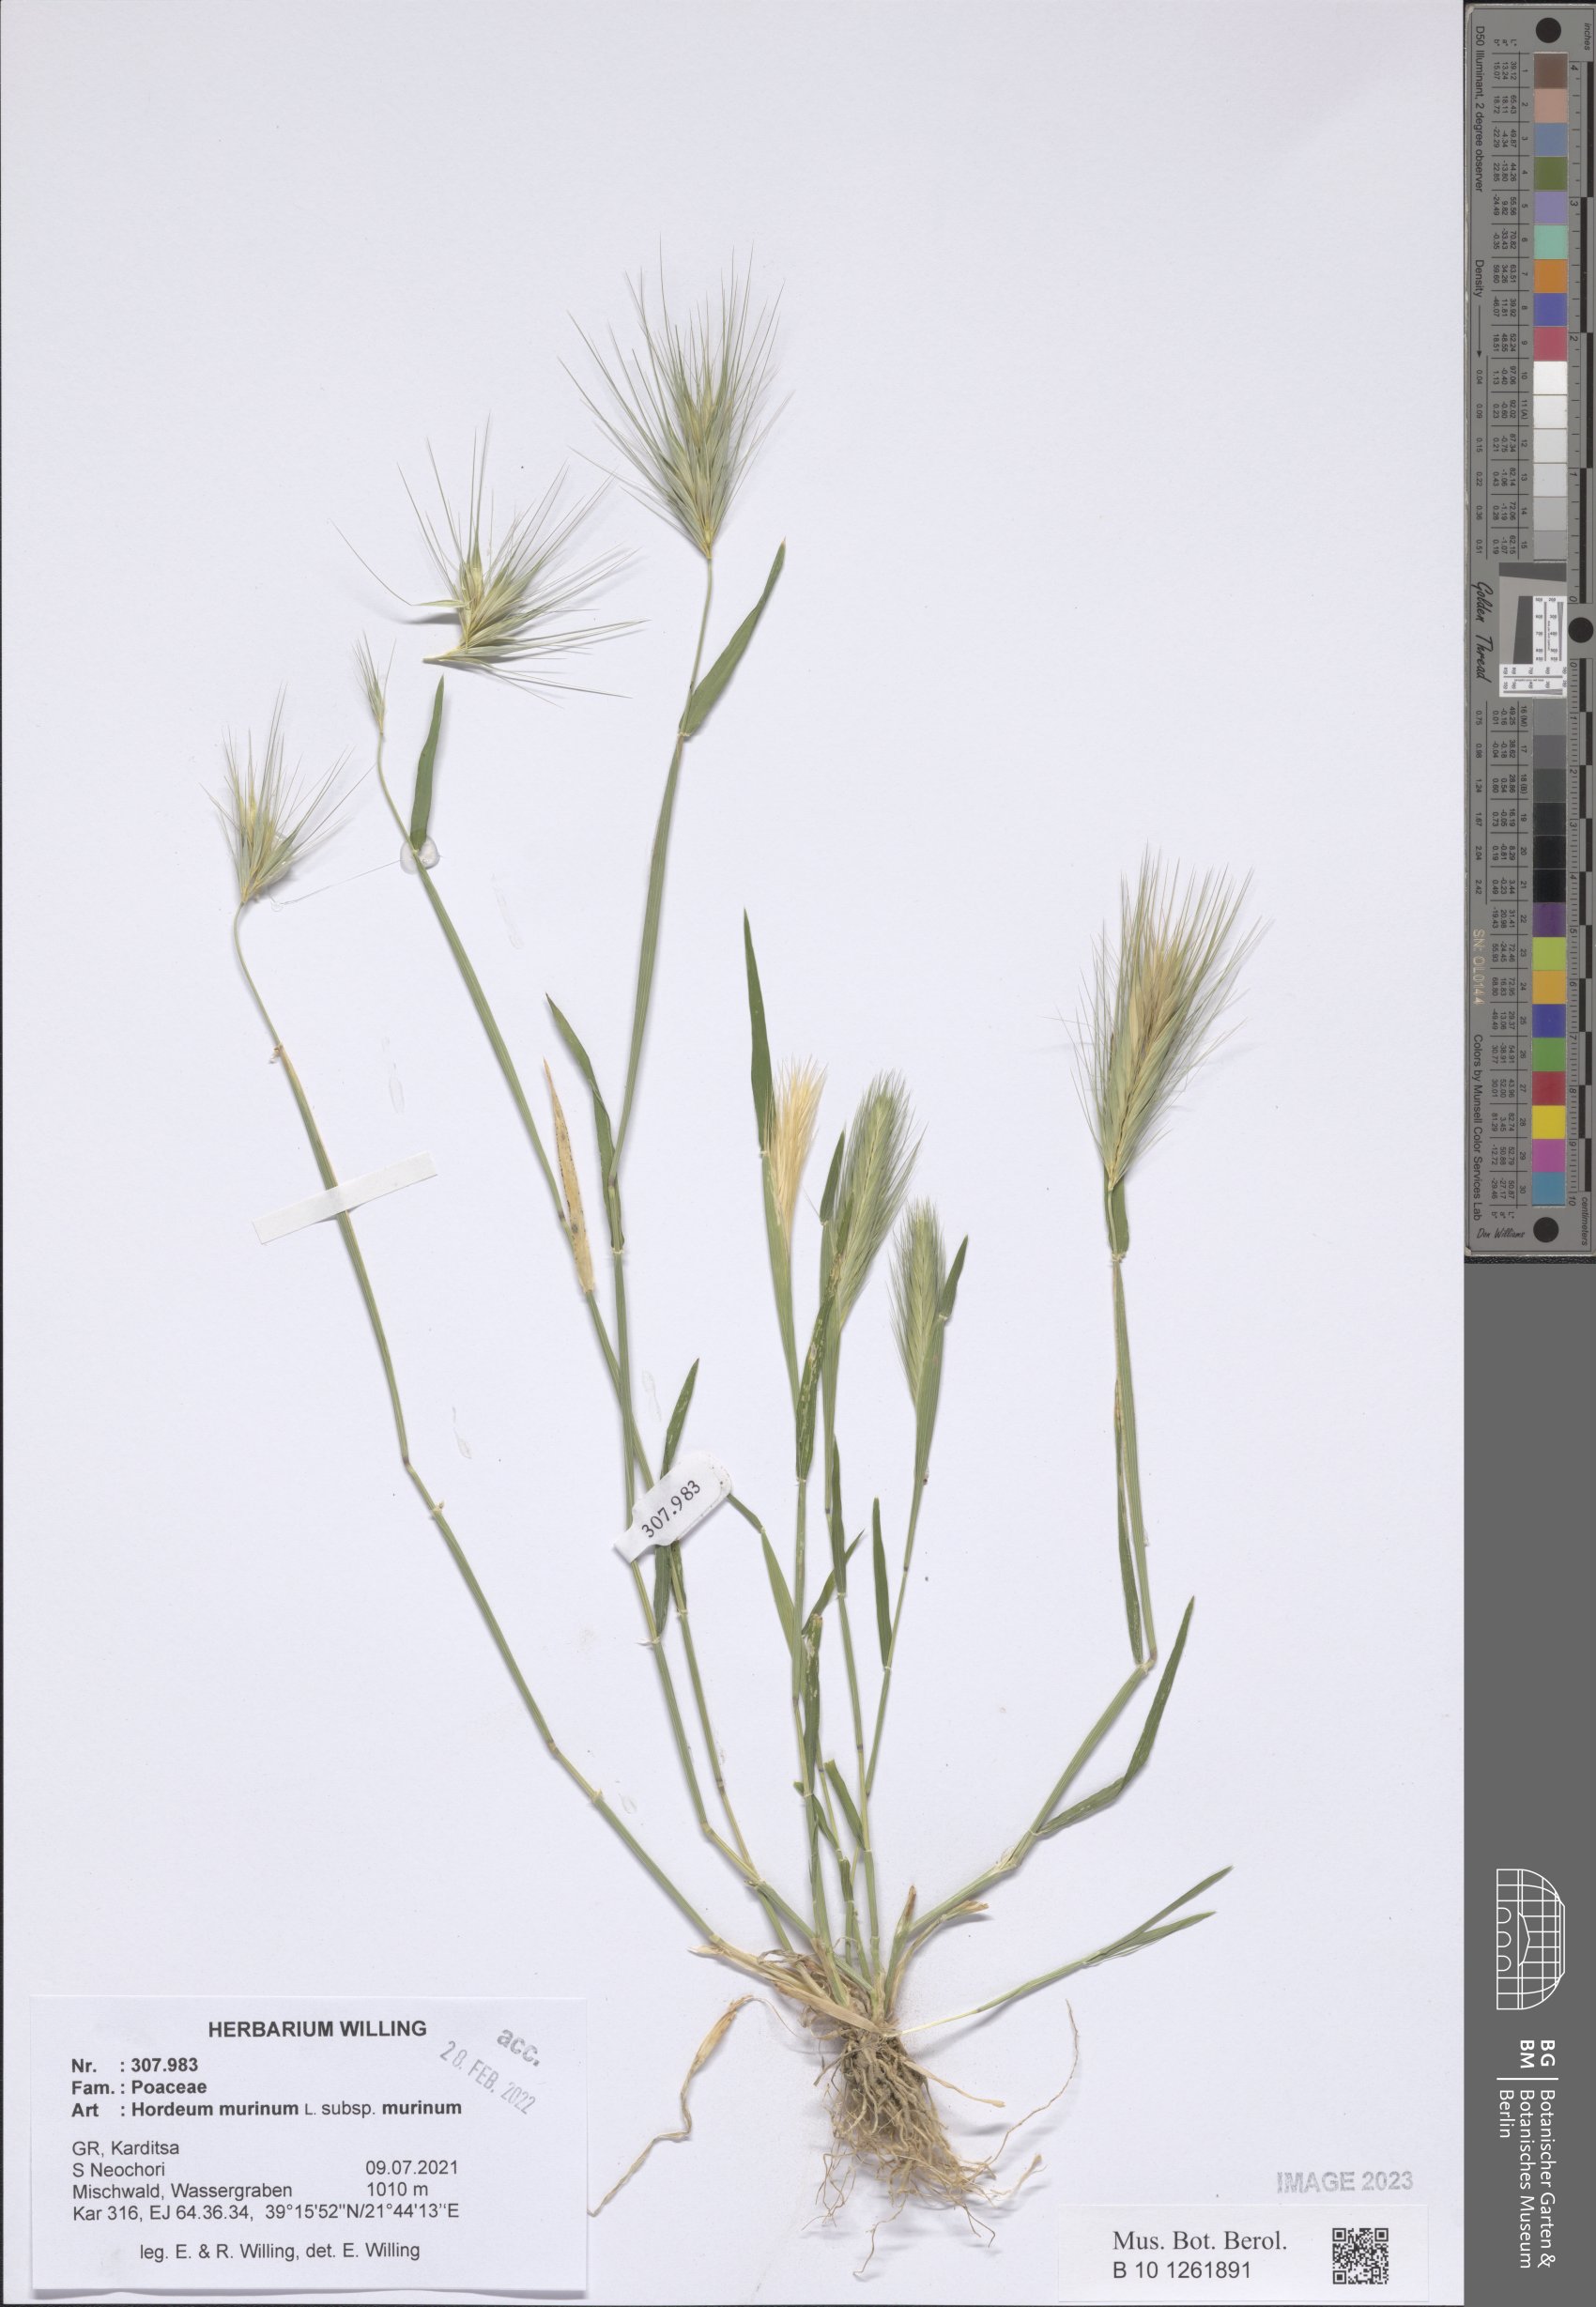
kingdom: Plantae
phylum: Tracheophyta
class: Liliopsida
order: Poales
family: Poaceae
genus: Hordeum
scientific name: Hordeum murinum
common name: Wall barley
